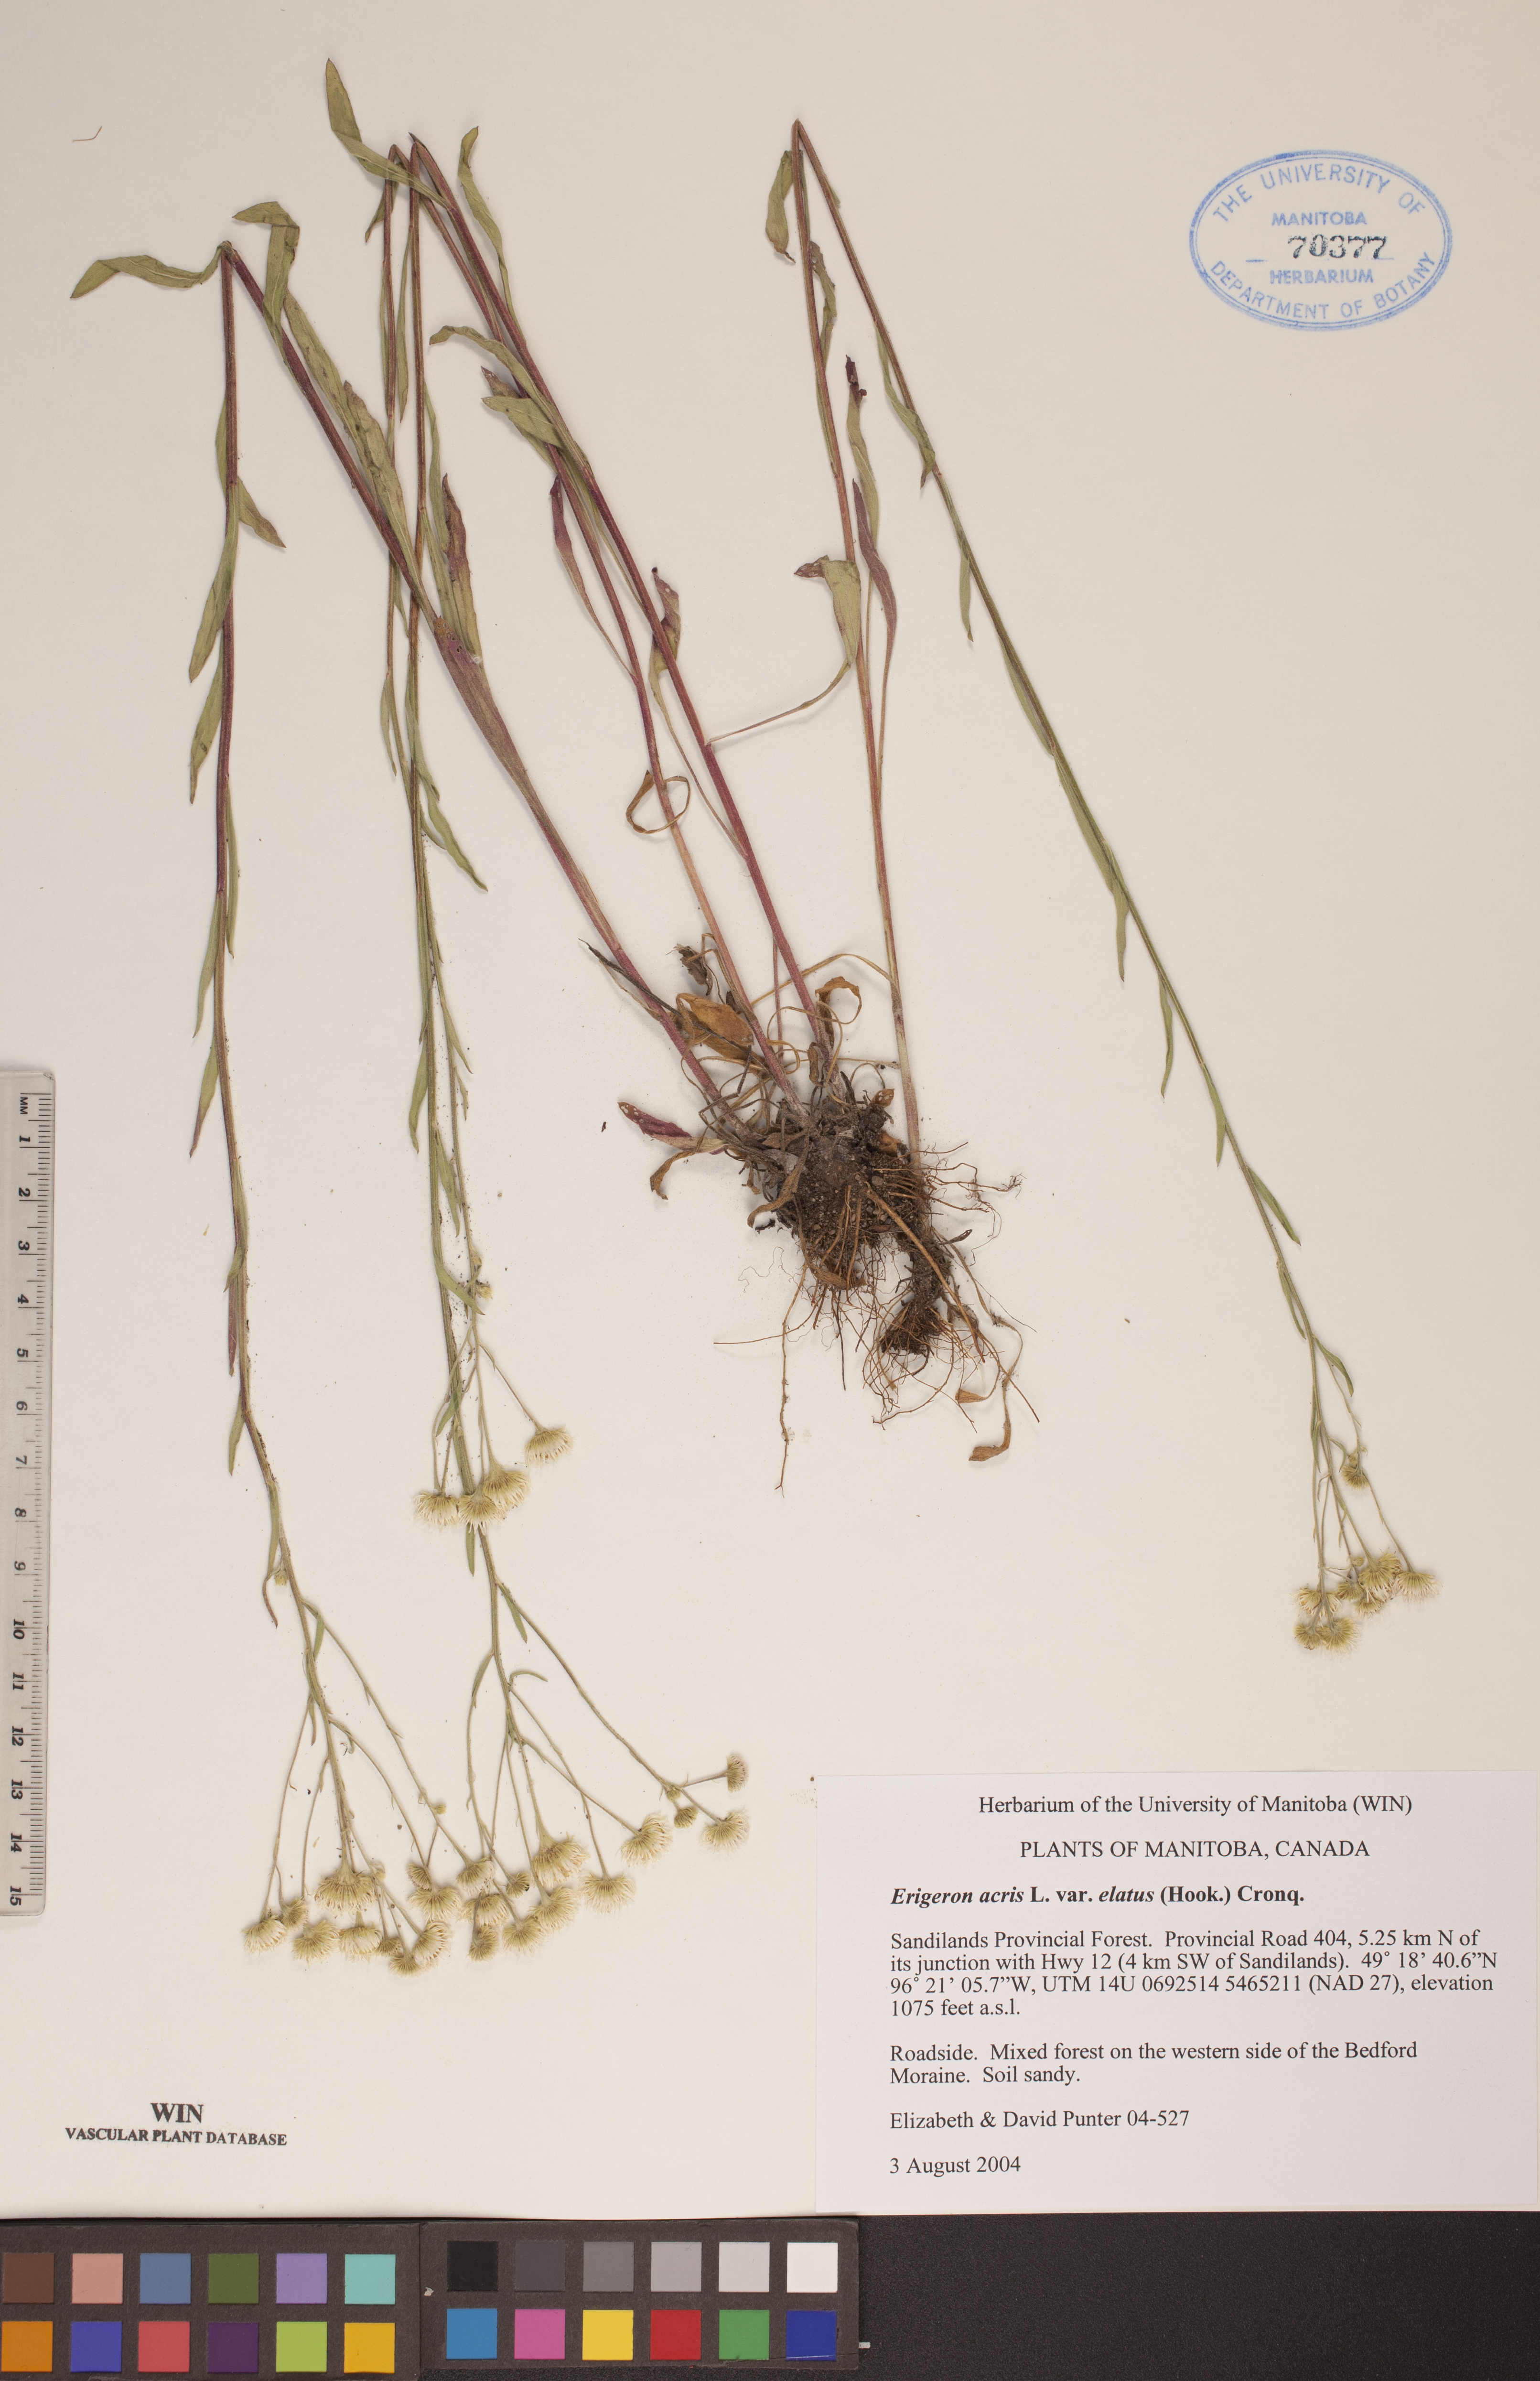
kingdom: Plantae
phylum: Tracheophyta
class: Magnoliopsida
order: Asterales
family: Asteraceae
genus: Erigeron
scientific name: Erigeron elatus
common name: Swamp fleabane
